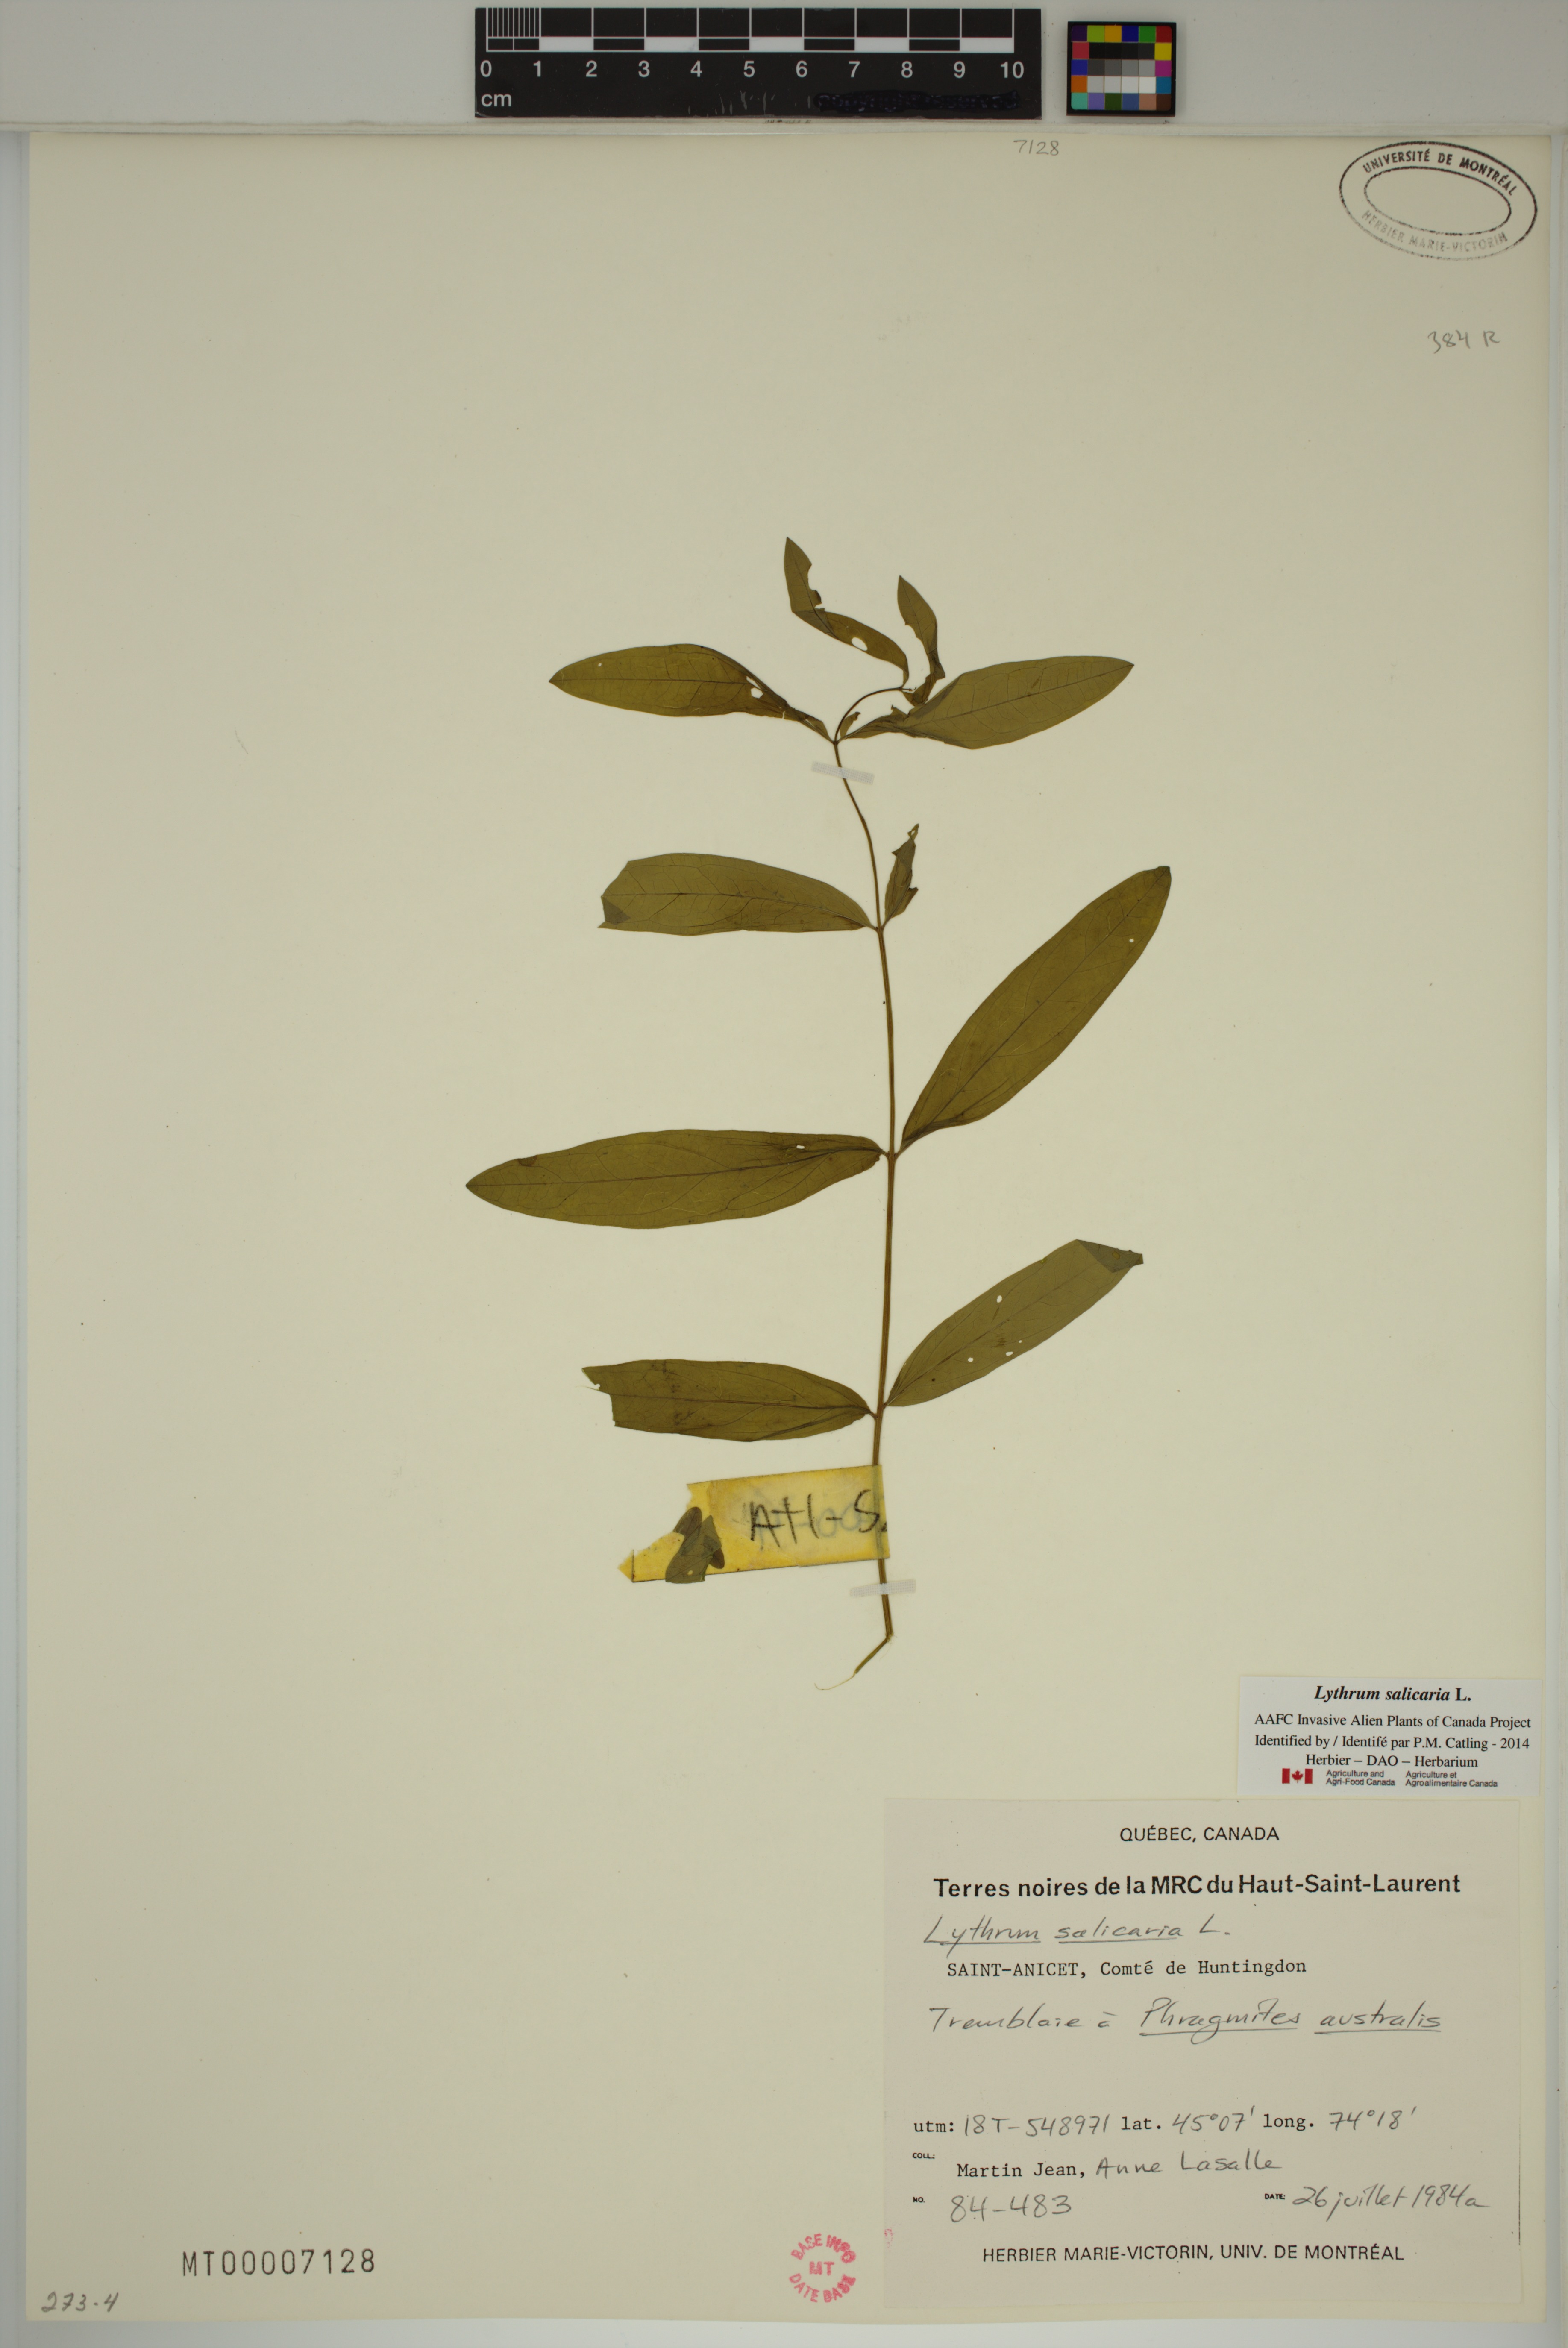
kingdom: Plantae
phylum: Tracheophyta
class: Magnoliopsida
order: Myrtales
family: Lythraceae
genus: Lythrum
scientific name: Lythrum salicaria
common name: Purple loosestrife
